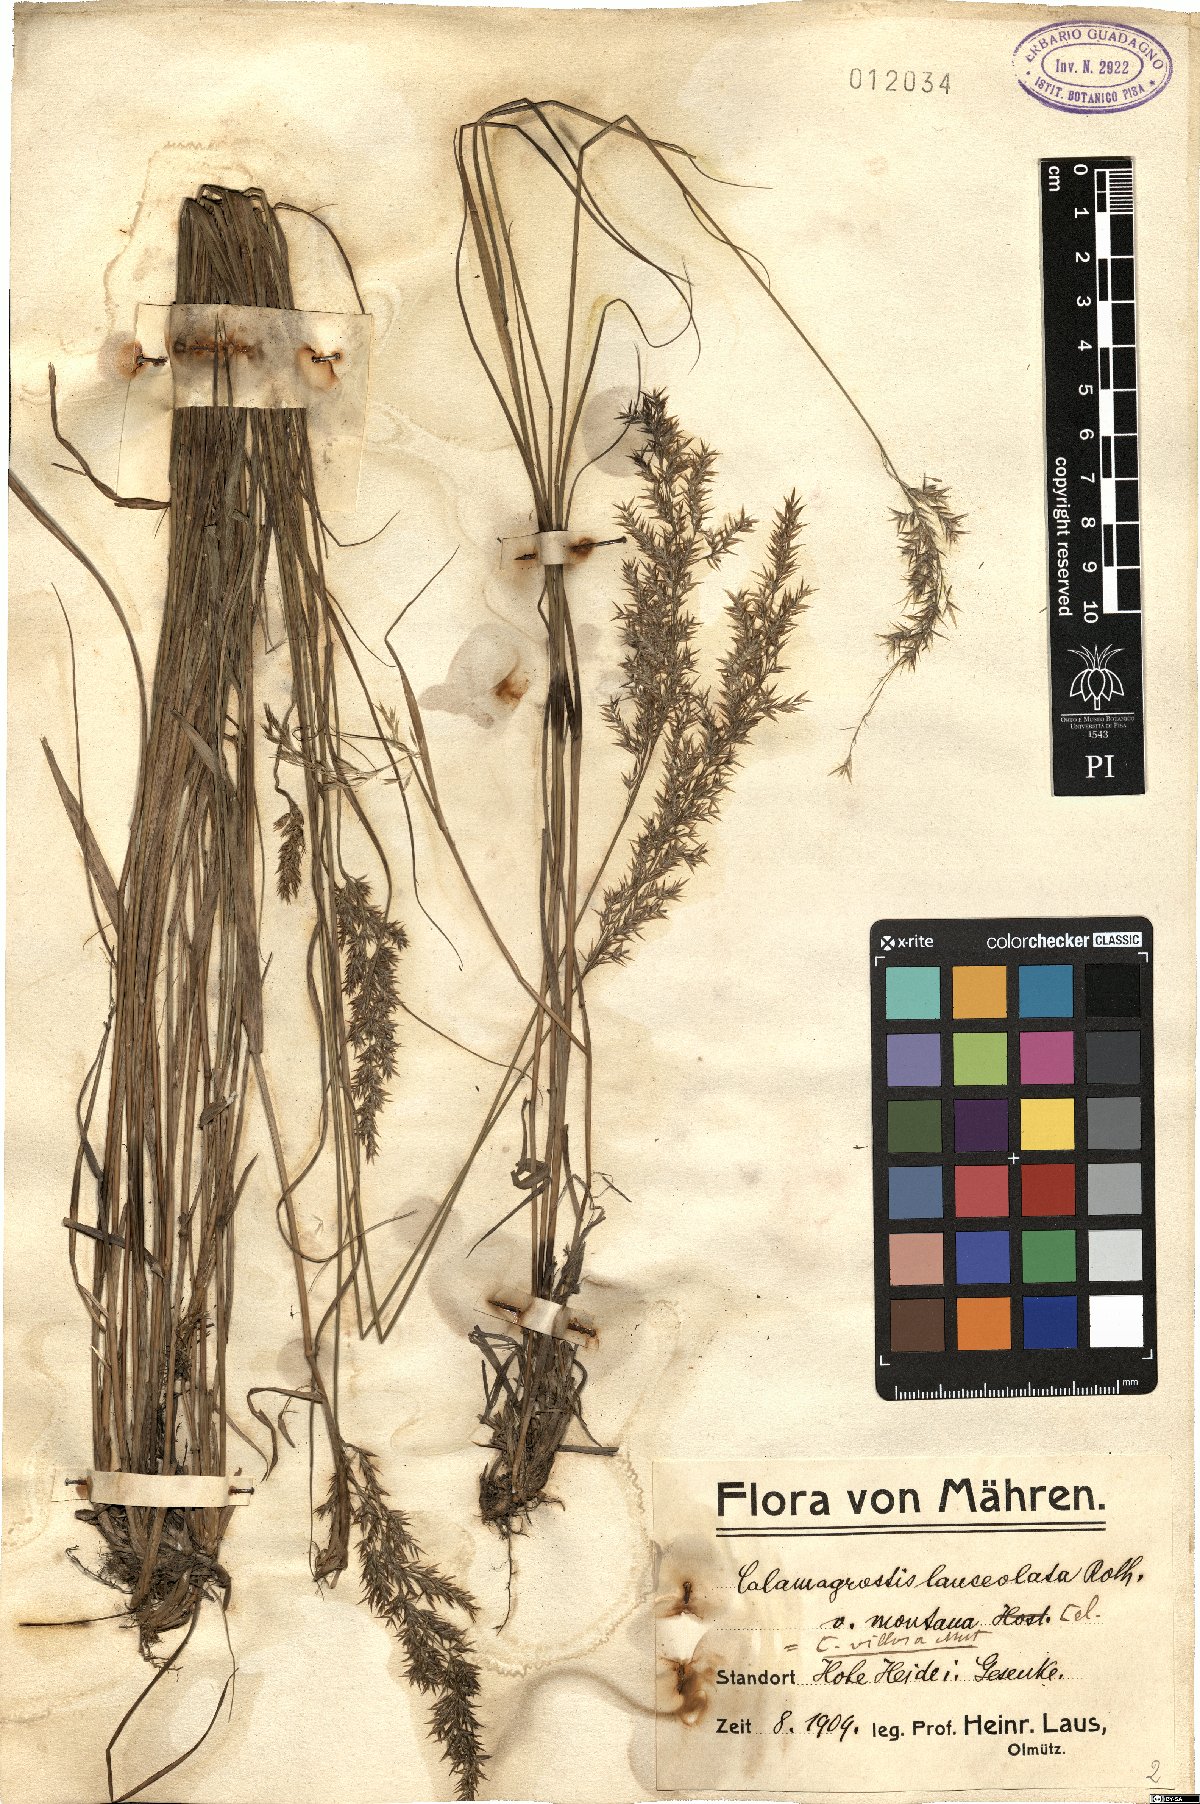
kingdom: Plantae
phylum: Tracheophyta
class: Liliopsida
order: Poales
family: Poaceae
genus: Calamagrostis
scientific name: Calamagrostis epigejos
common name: Wood small-reed
